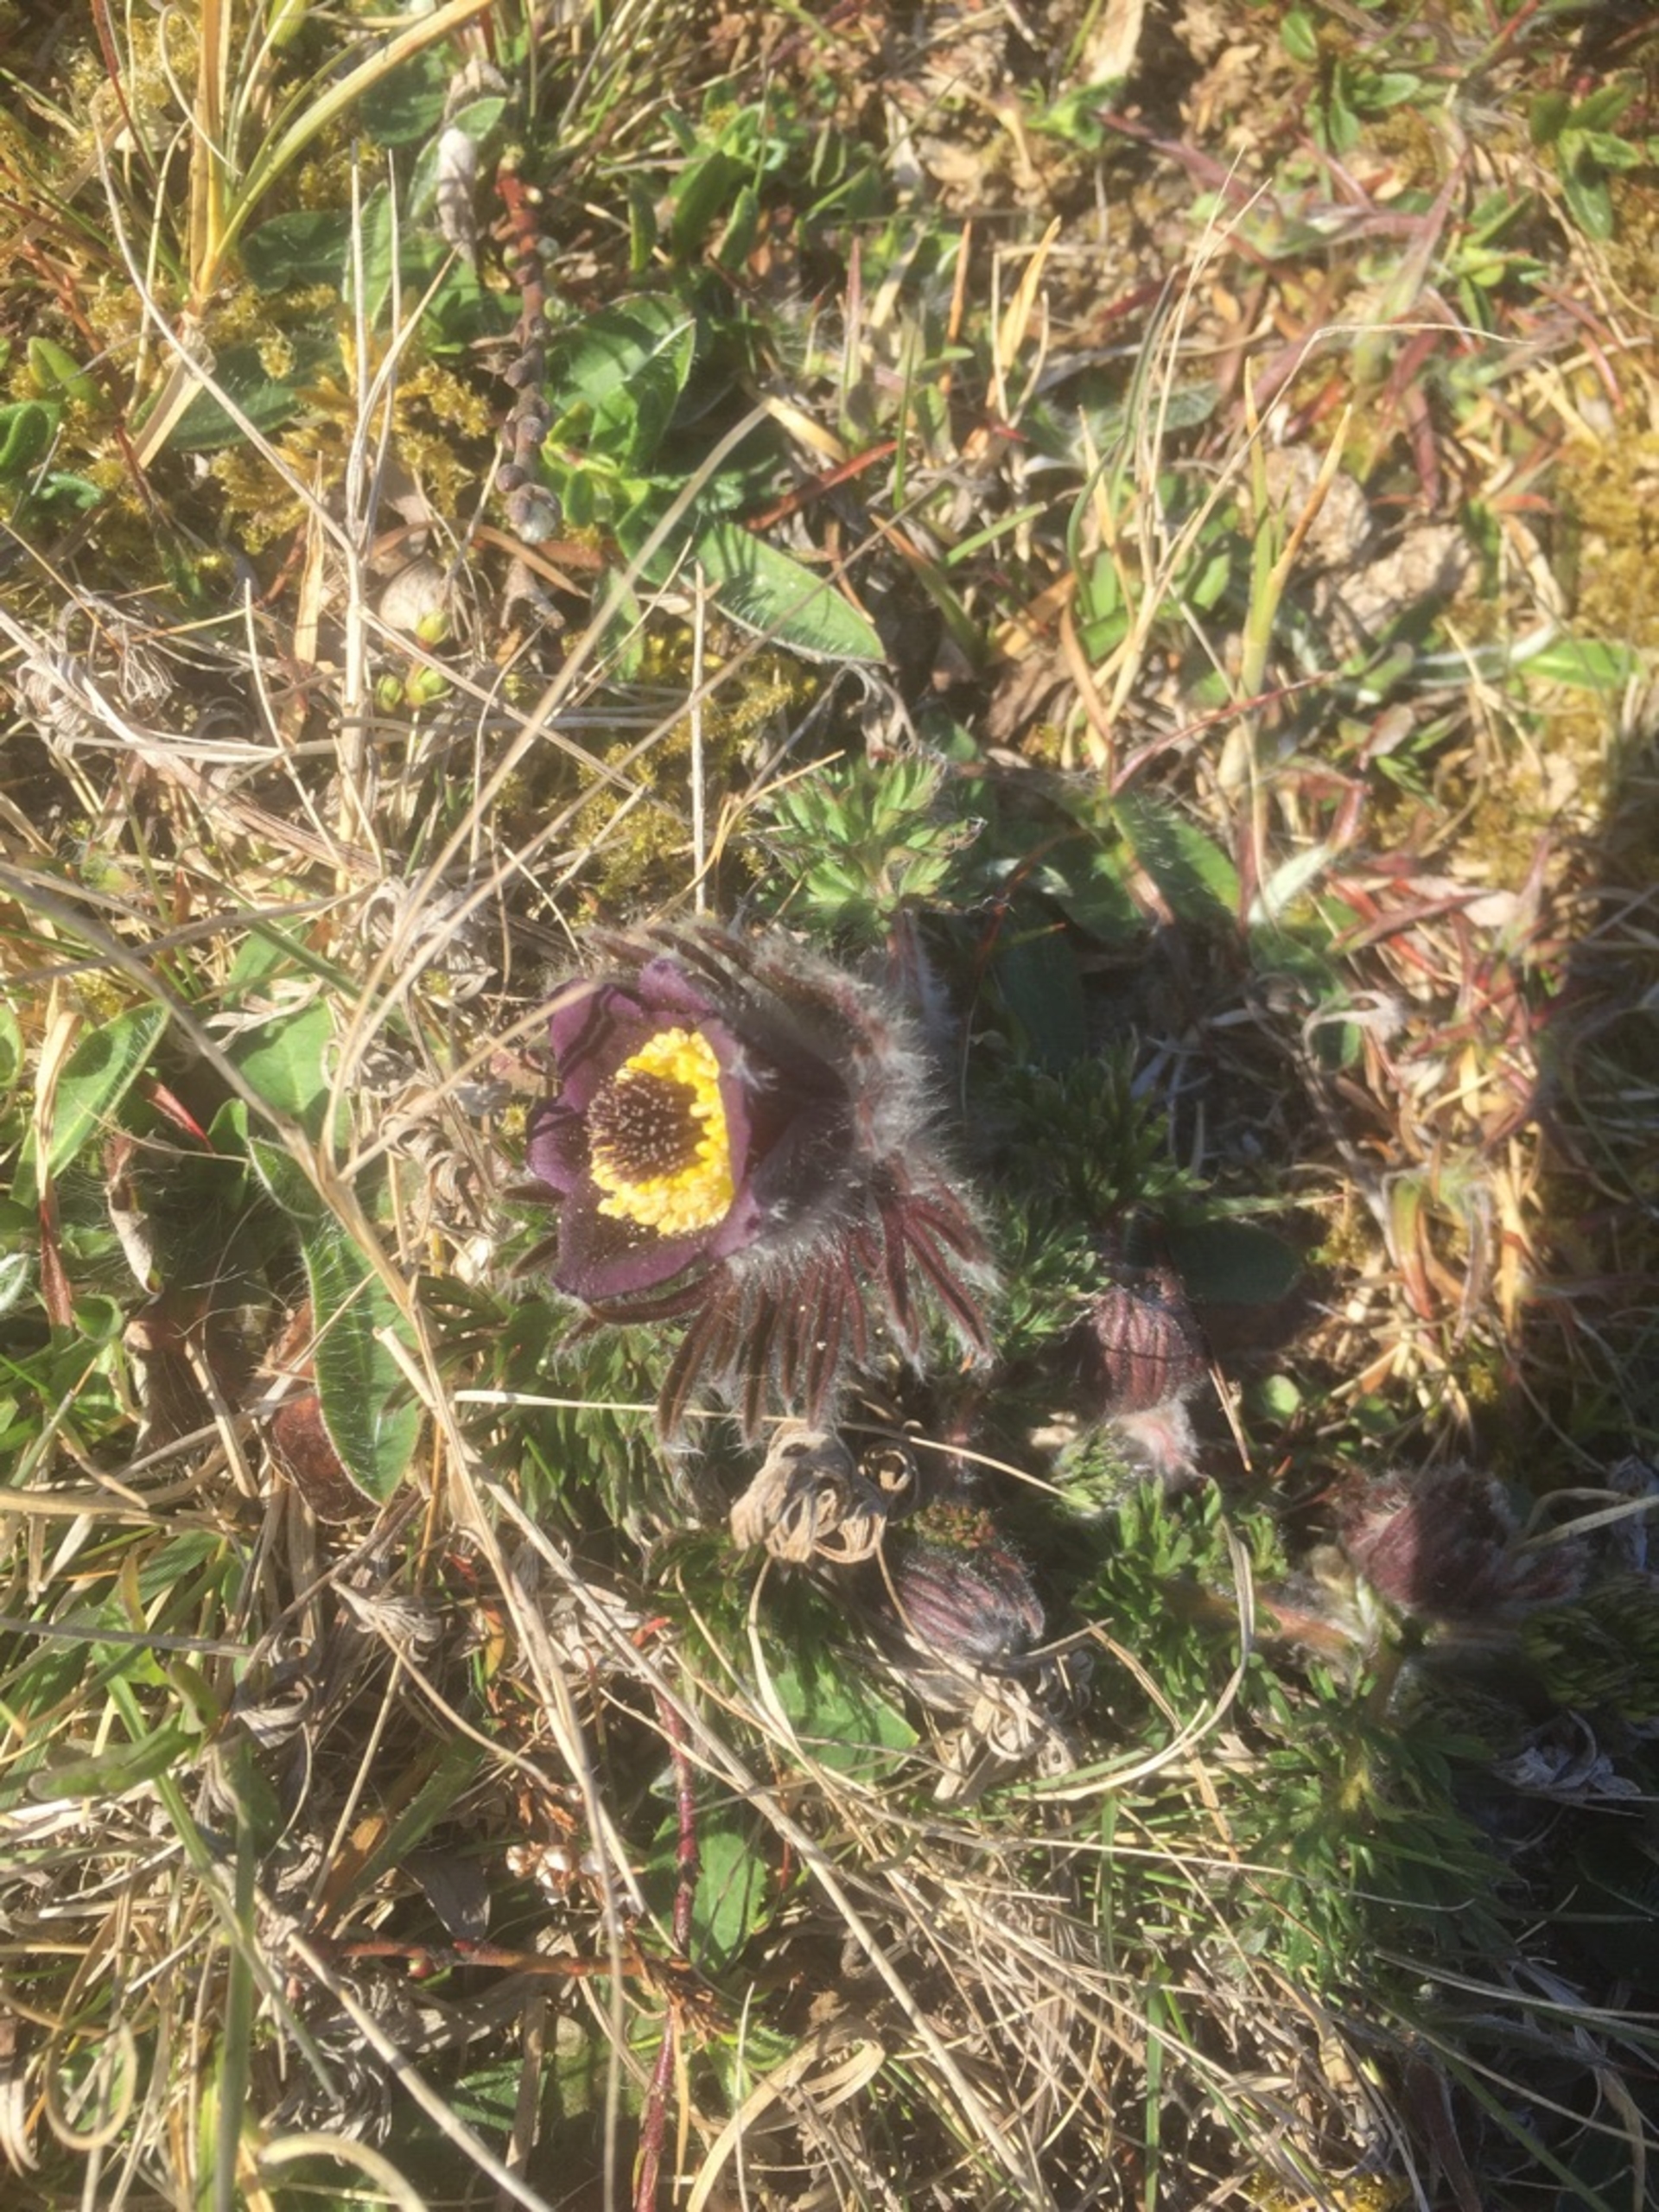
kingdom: Plantae
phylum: Tracheophyta
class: Magnoliopsida
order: Ranunculales
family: Ranunculaceae
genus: Pulsatilla
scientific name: Pulsatilla pratensis
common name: Nikkende kobjælde
